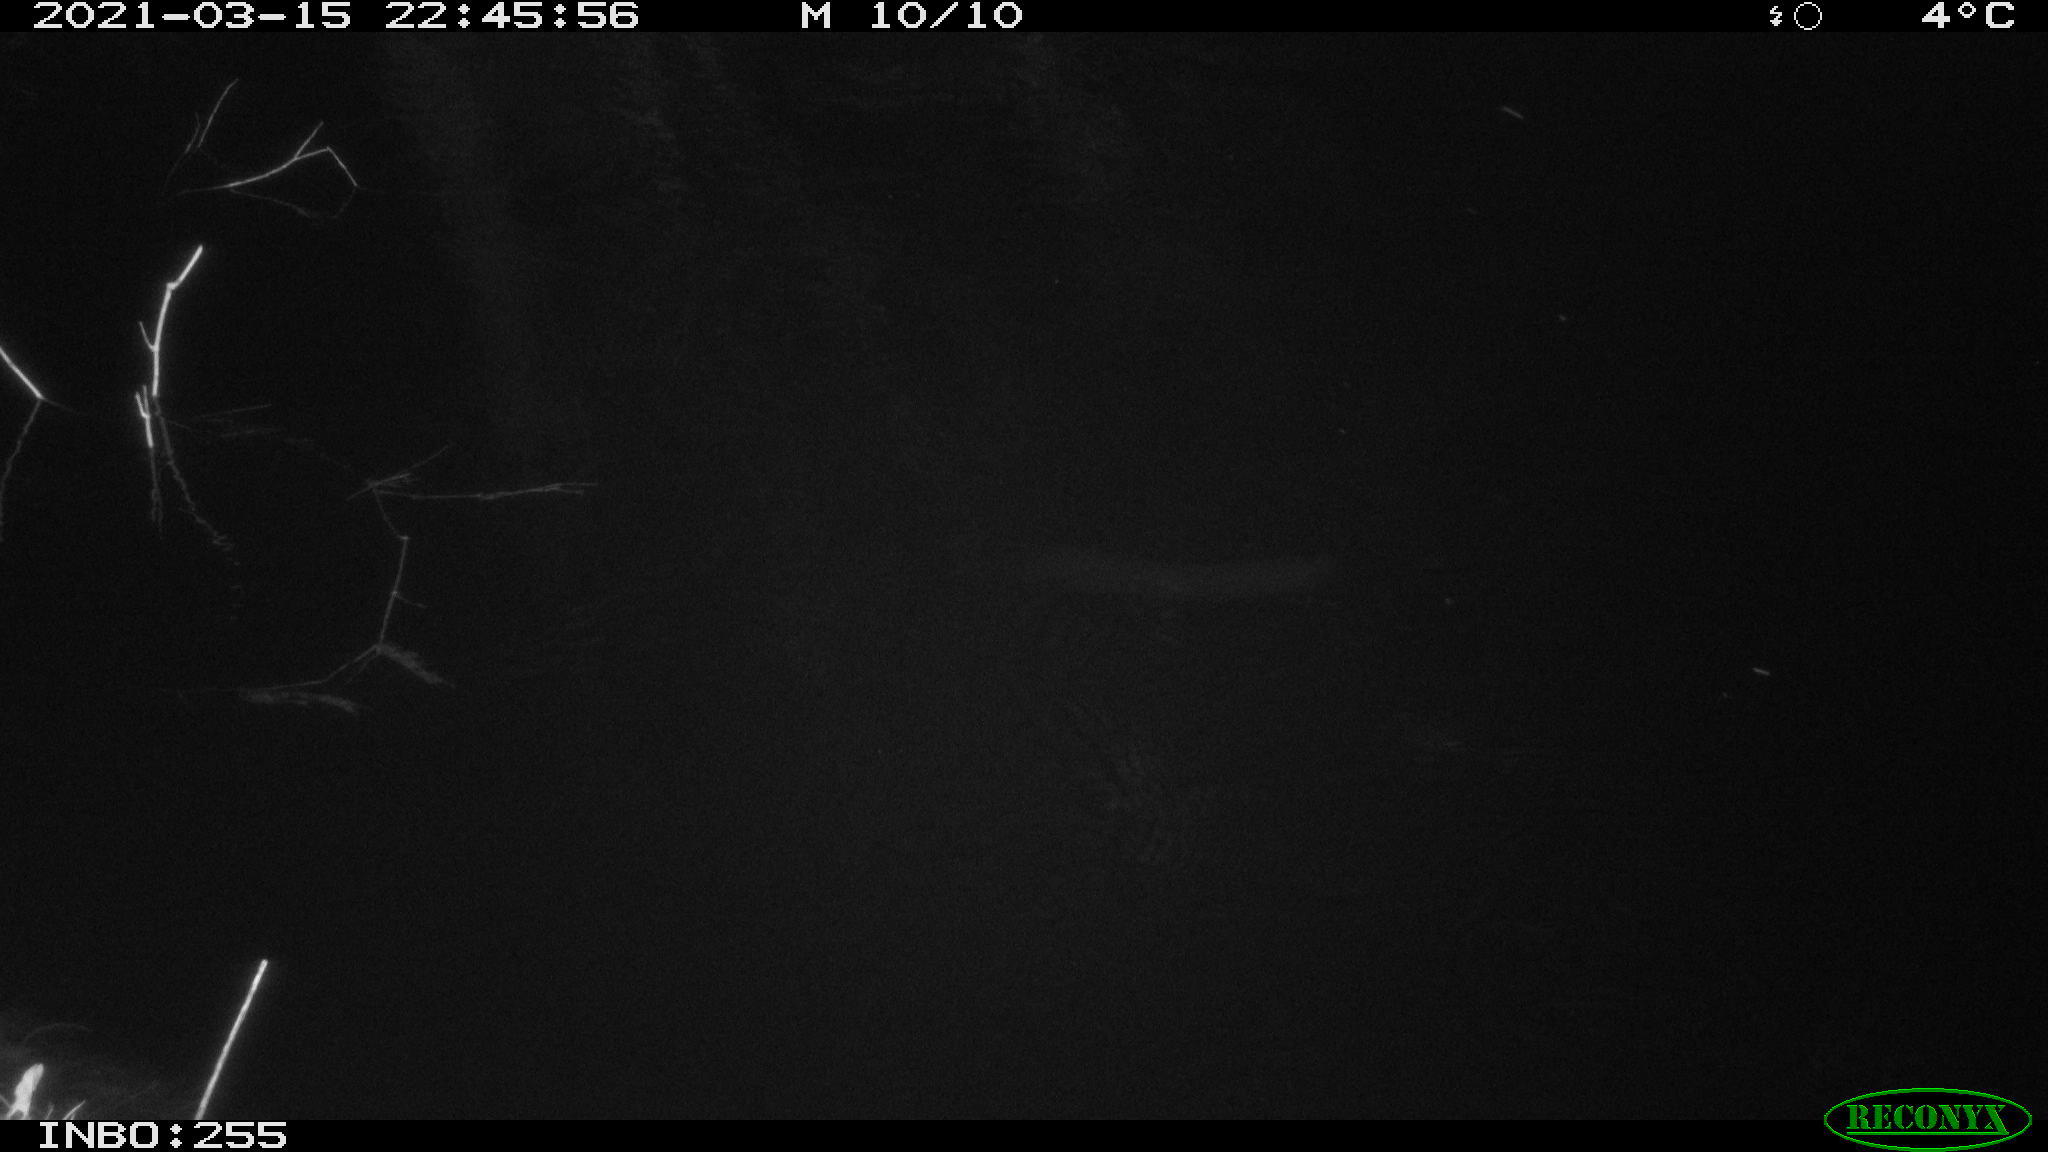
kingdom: Animalia
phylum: Chordata
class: Mammalia
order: Rodentia
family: Muridae
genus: Rattus
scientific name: Rattus norvegicus
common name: Brown rat
